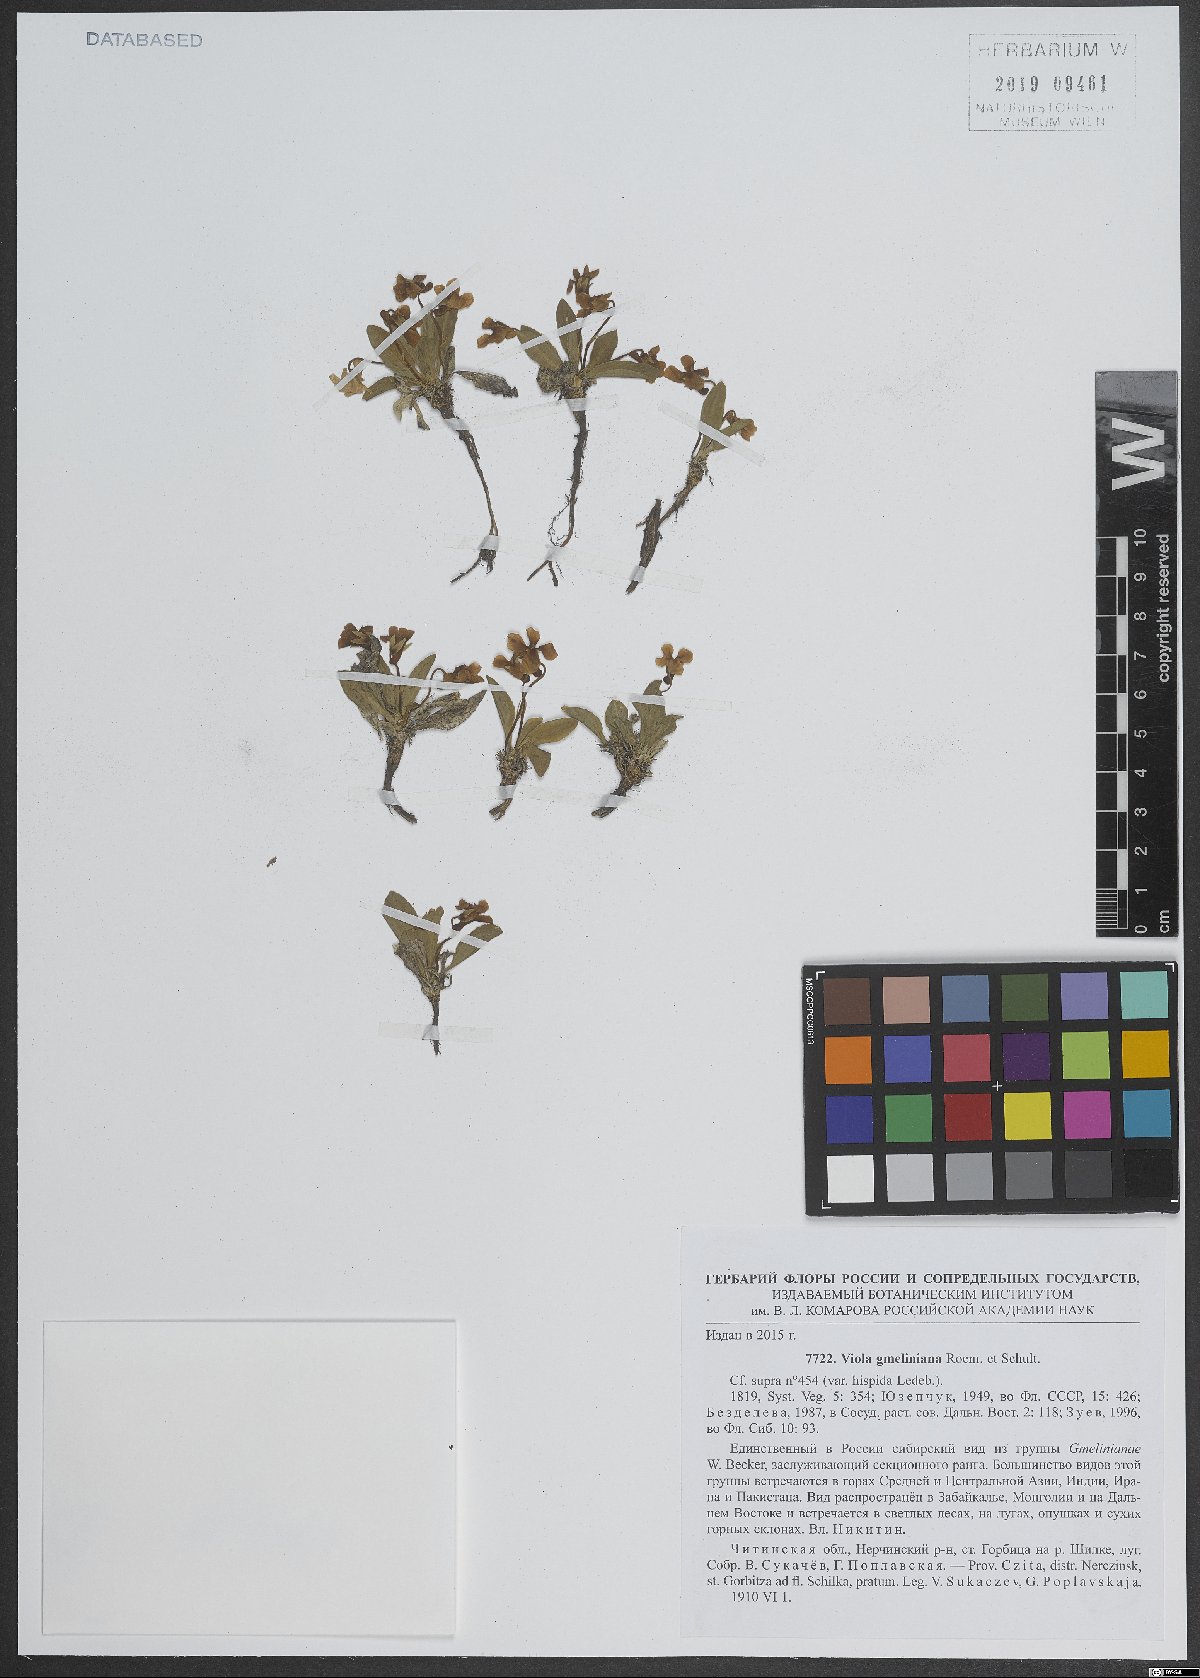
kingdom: Plantae
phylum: Tracheophyta
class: Magnoliopsida
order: Malpighiales
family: Violaceae
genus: Viola
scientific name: Viola gmeliniana
